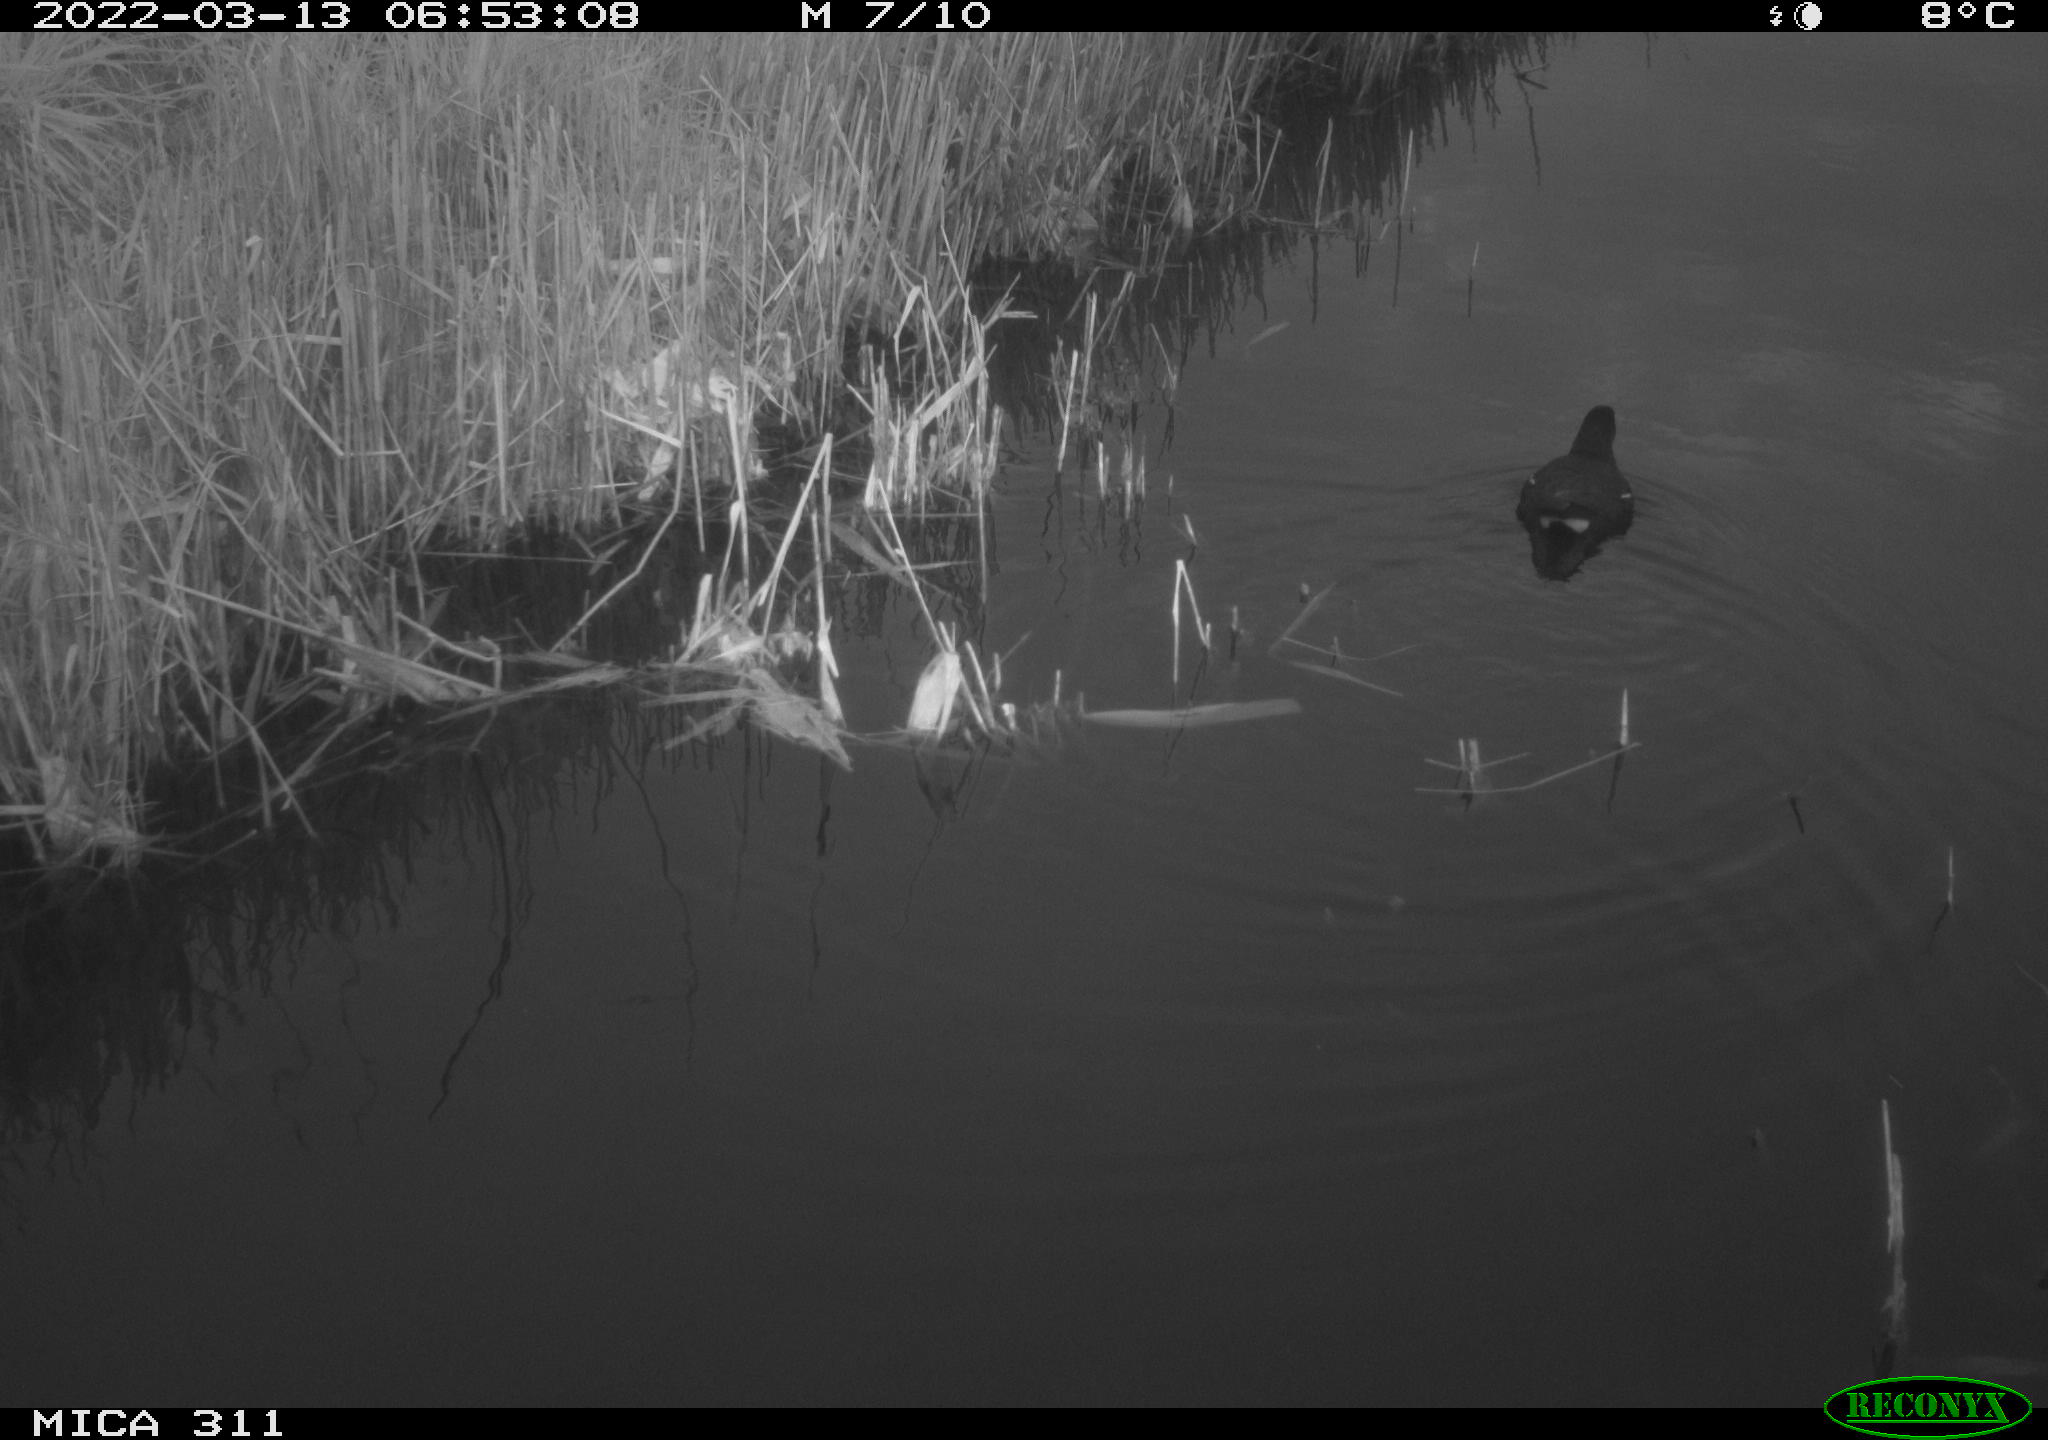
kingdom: Animalia
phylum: Chordata
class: Aves
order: Gruiformes
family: Rallidae
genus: Gallinula
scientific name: Gallinula chloropus
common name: Common moorhen
